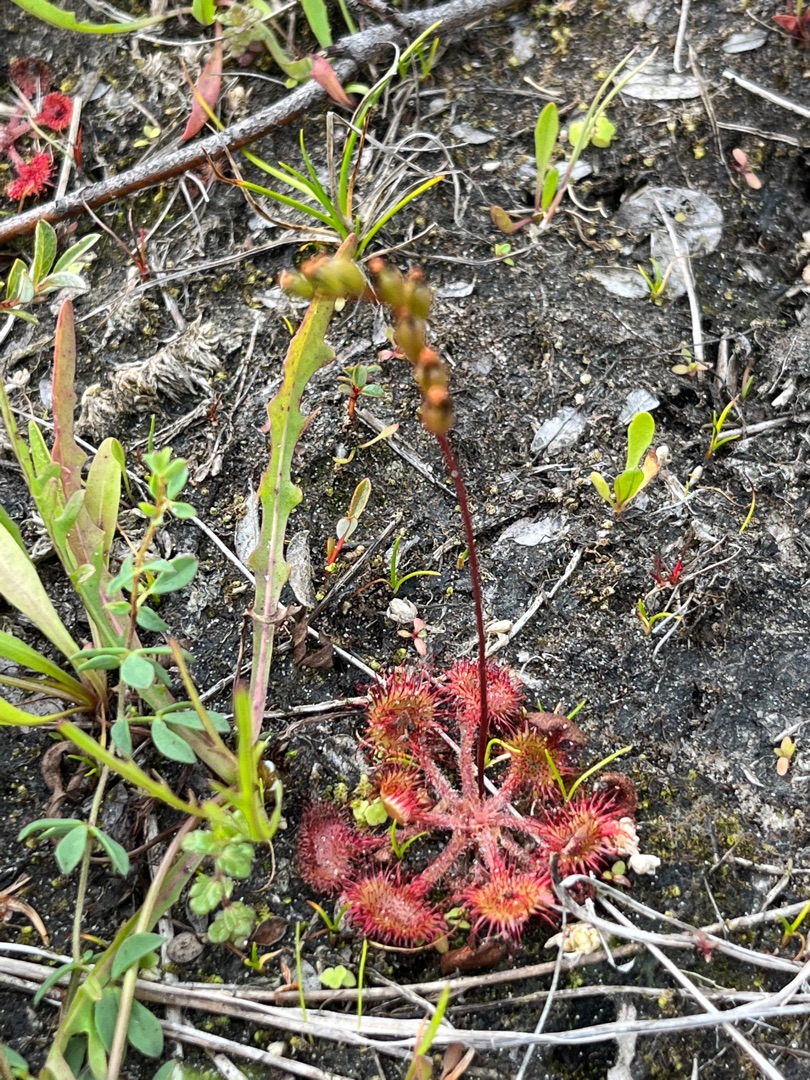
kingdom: Plantae
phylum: Tracheophyta
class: Magnoliopsida
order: Caryophyllales
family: Droseraceae
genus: Drosera
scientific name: Drosera rotundifolia
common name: Rundbladet soldug
